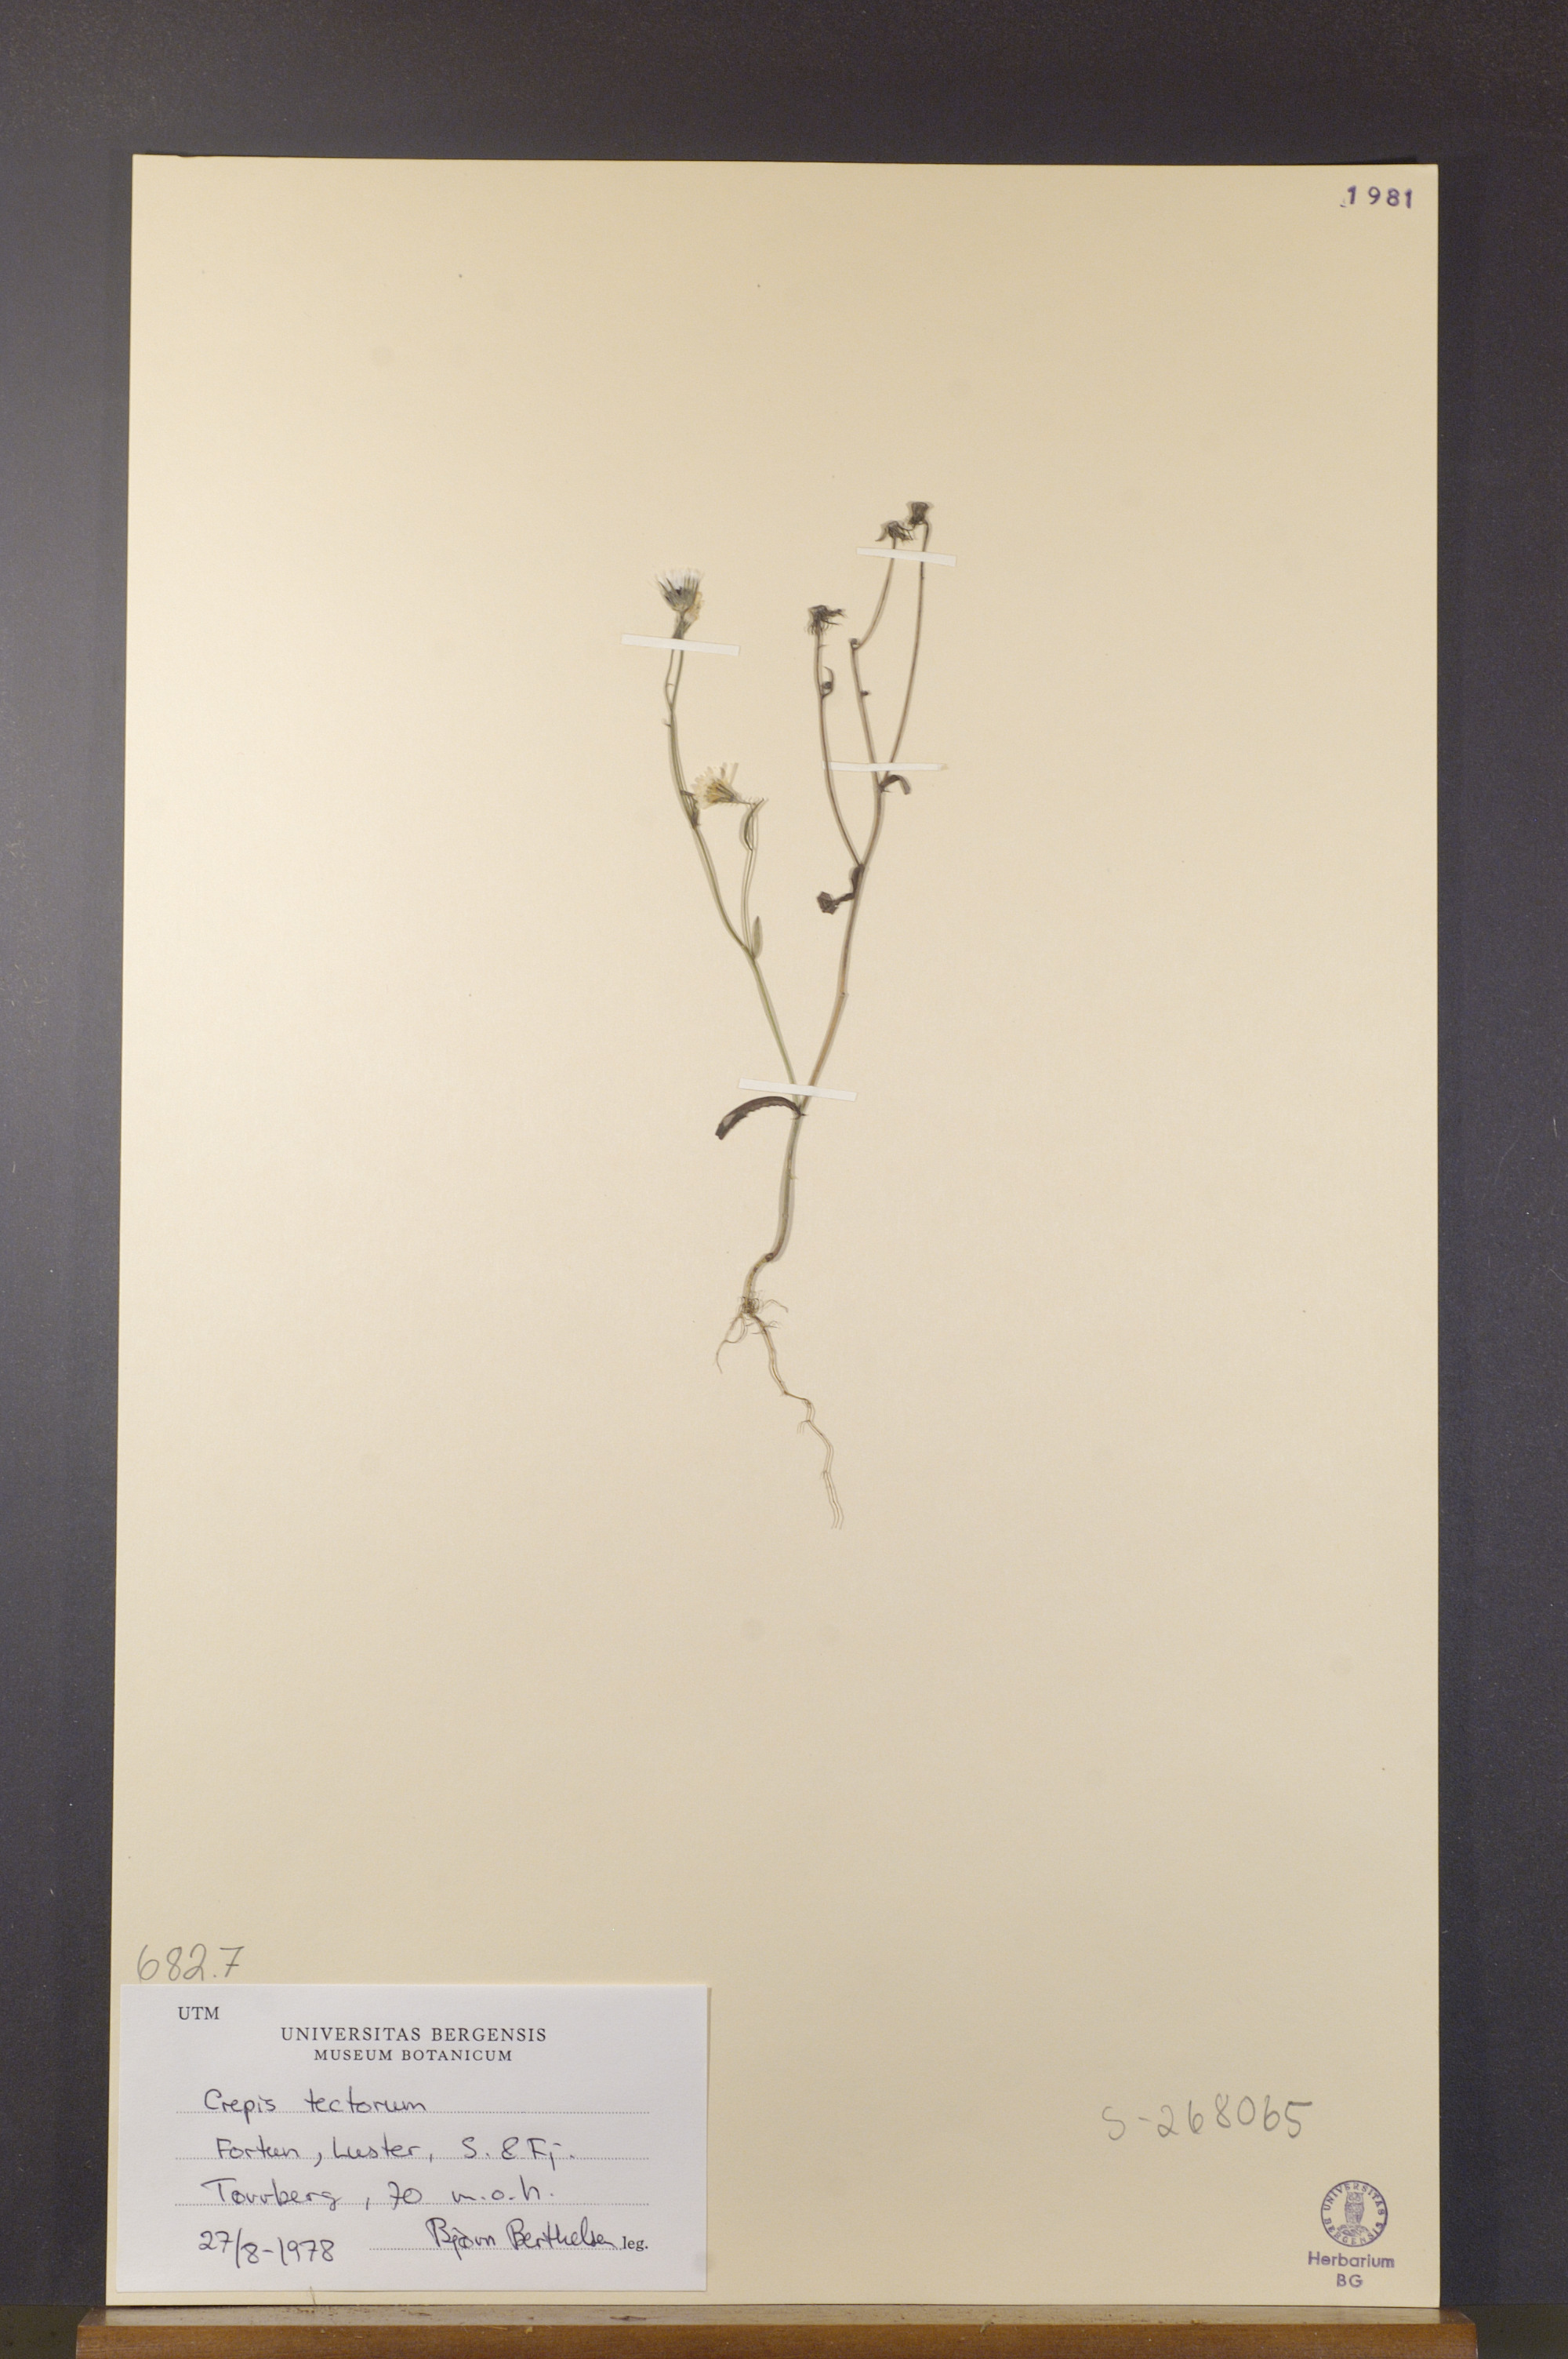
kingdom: Plantae
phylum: Tracheophyta
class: Magnoliopsida
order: Asterales
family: Asteraceae
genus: Crepis
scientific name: Crepis tectorum
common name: Narrow-leaved hawk's-beard
